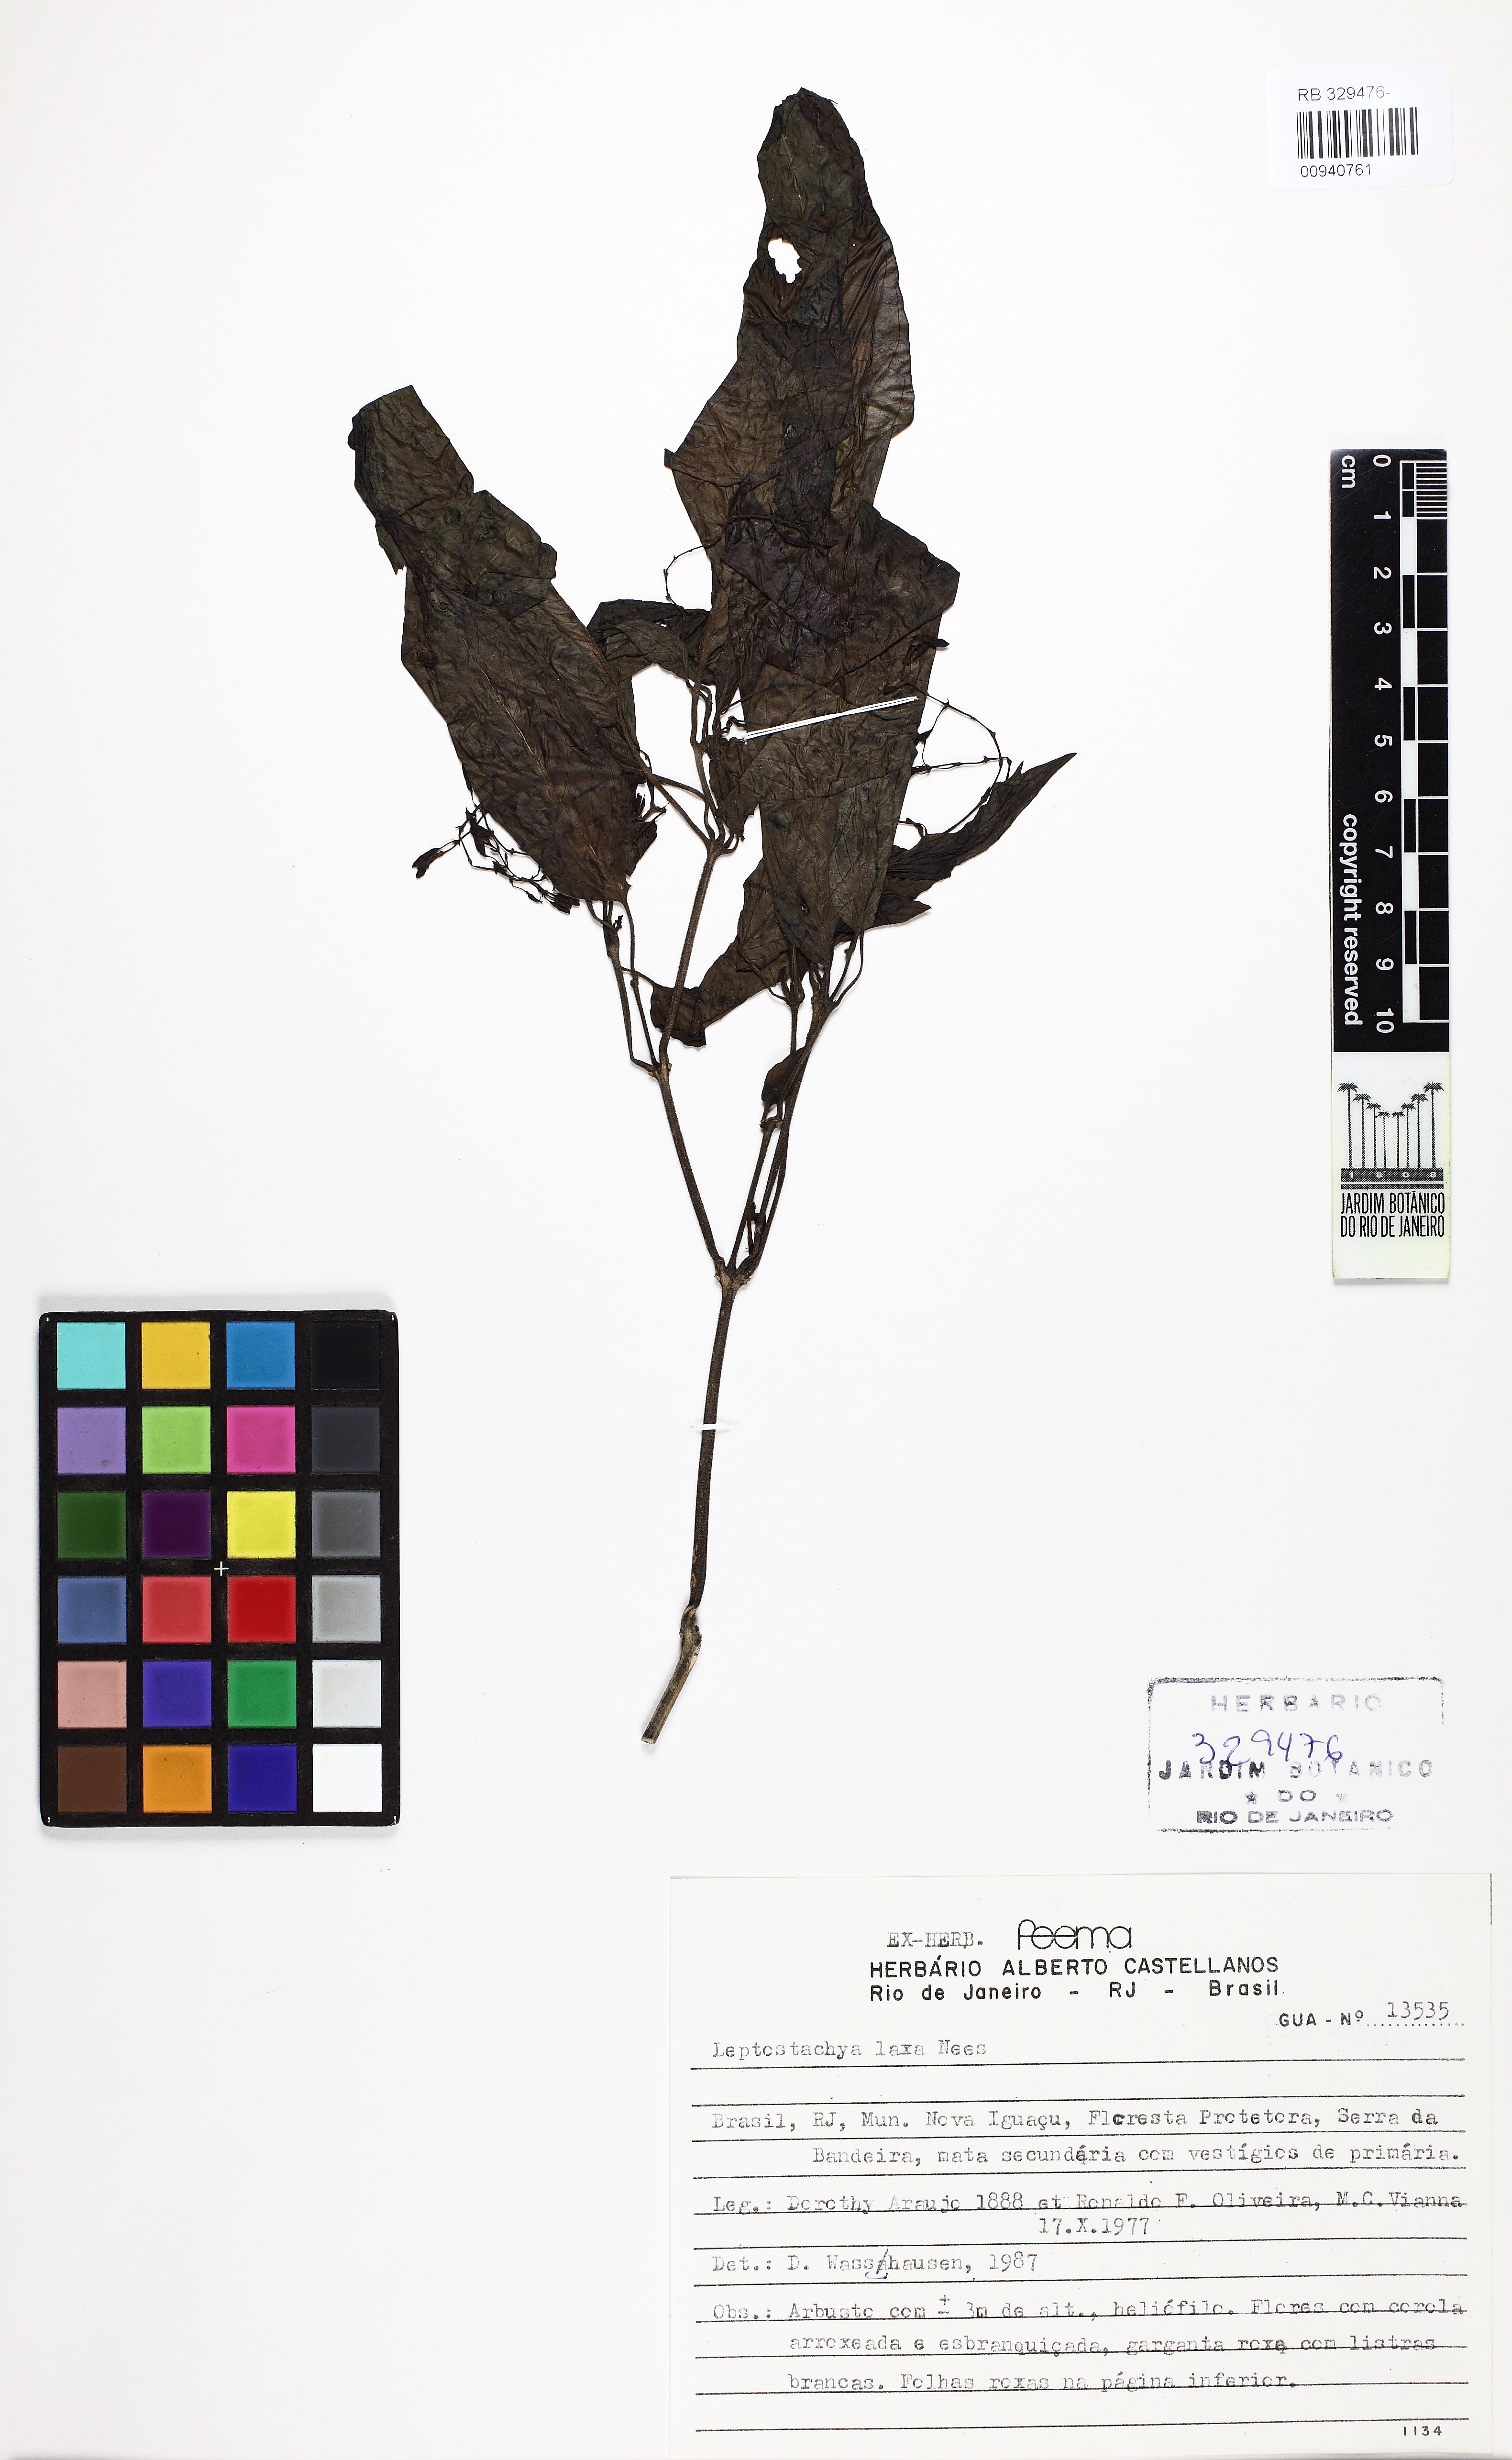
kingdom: Plantae
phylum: Tracheophyta
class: Magnoliopsida
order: Lamiales
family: Acanthaceae
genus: Justicia
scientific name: Justicia flosculosa
